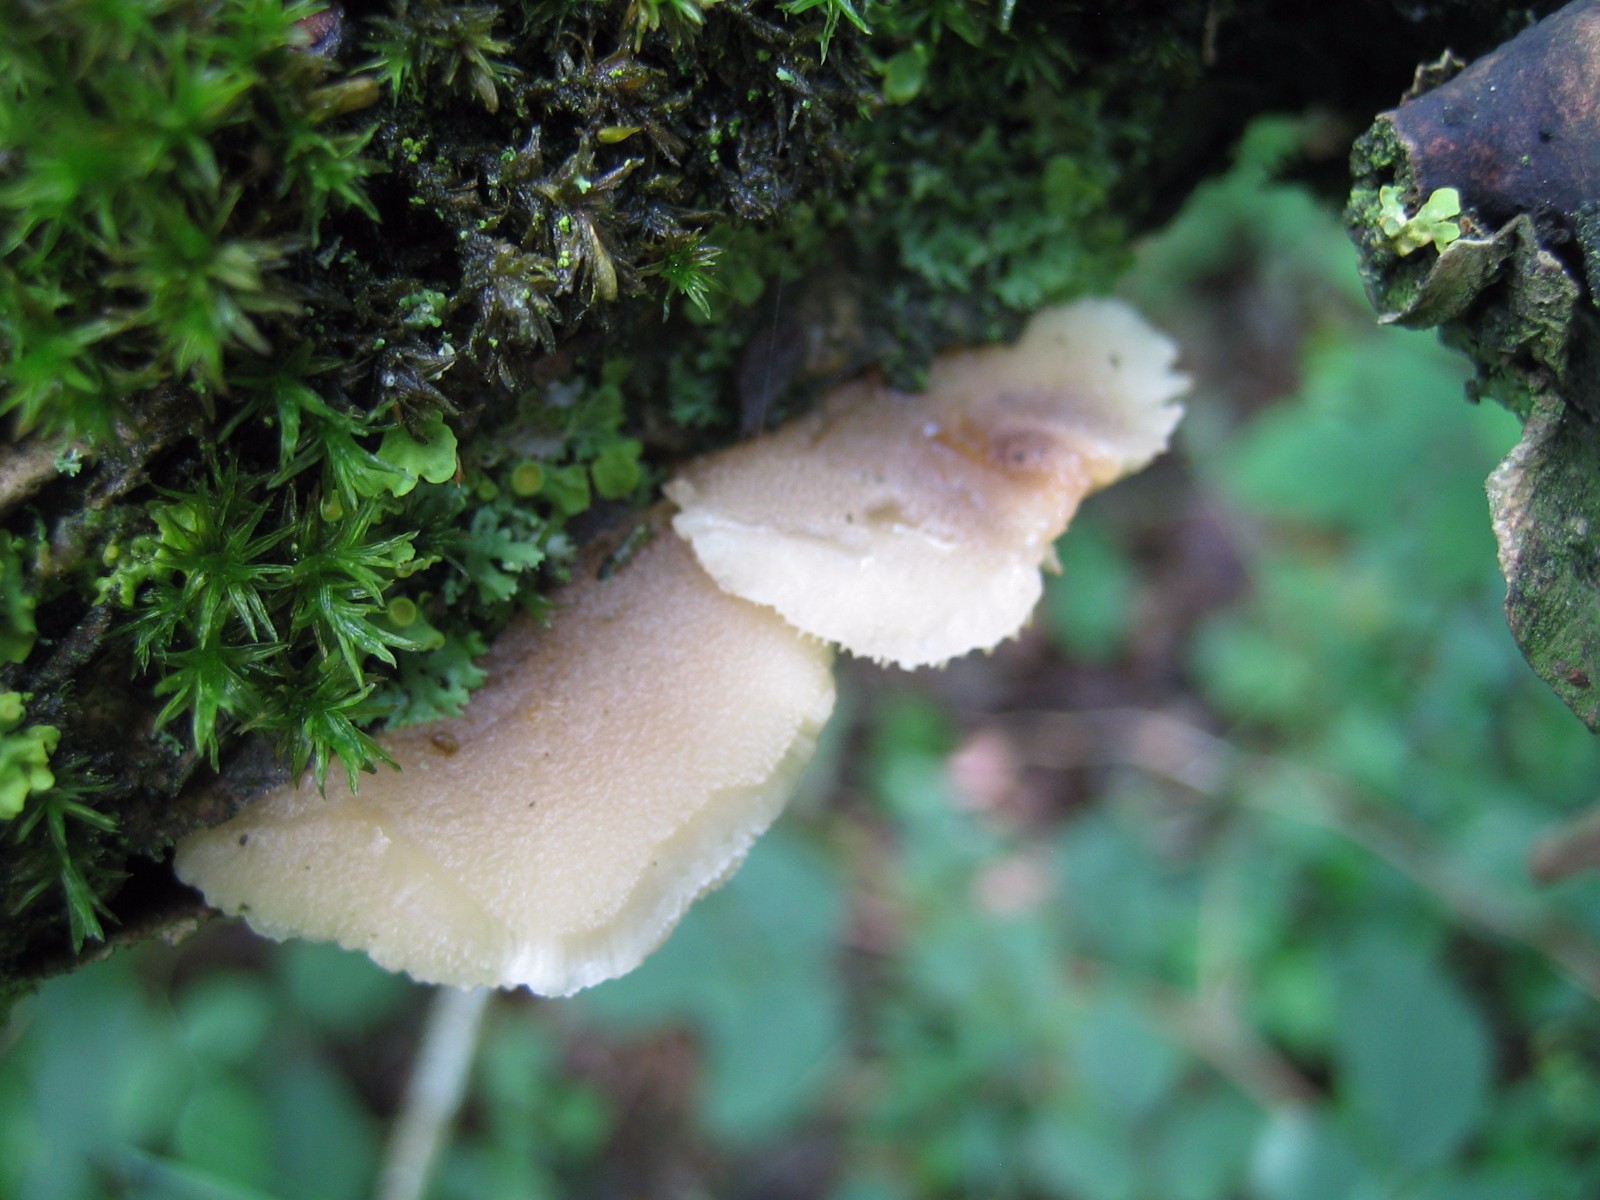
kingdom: Fungi
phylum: Basidiomycota
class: Agaricomycetes
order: Agaricales
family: Pleurotaceae
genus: Hohenbuehelia
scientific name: Hohenbuehelia
